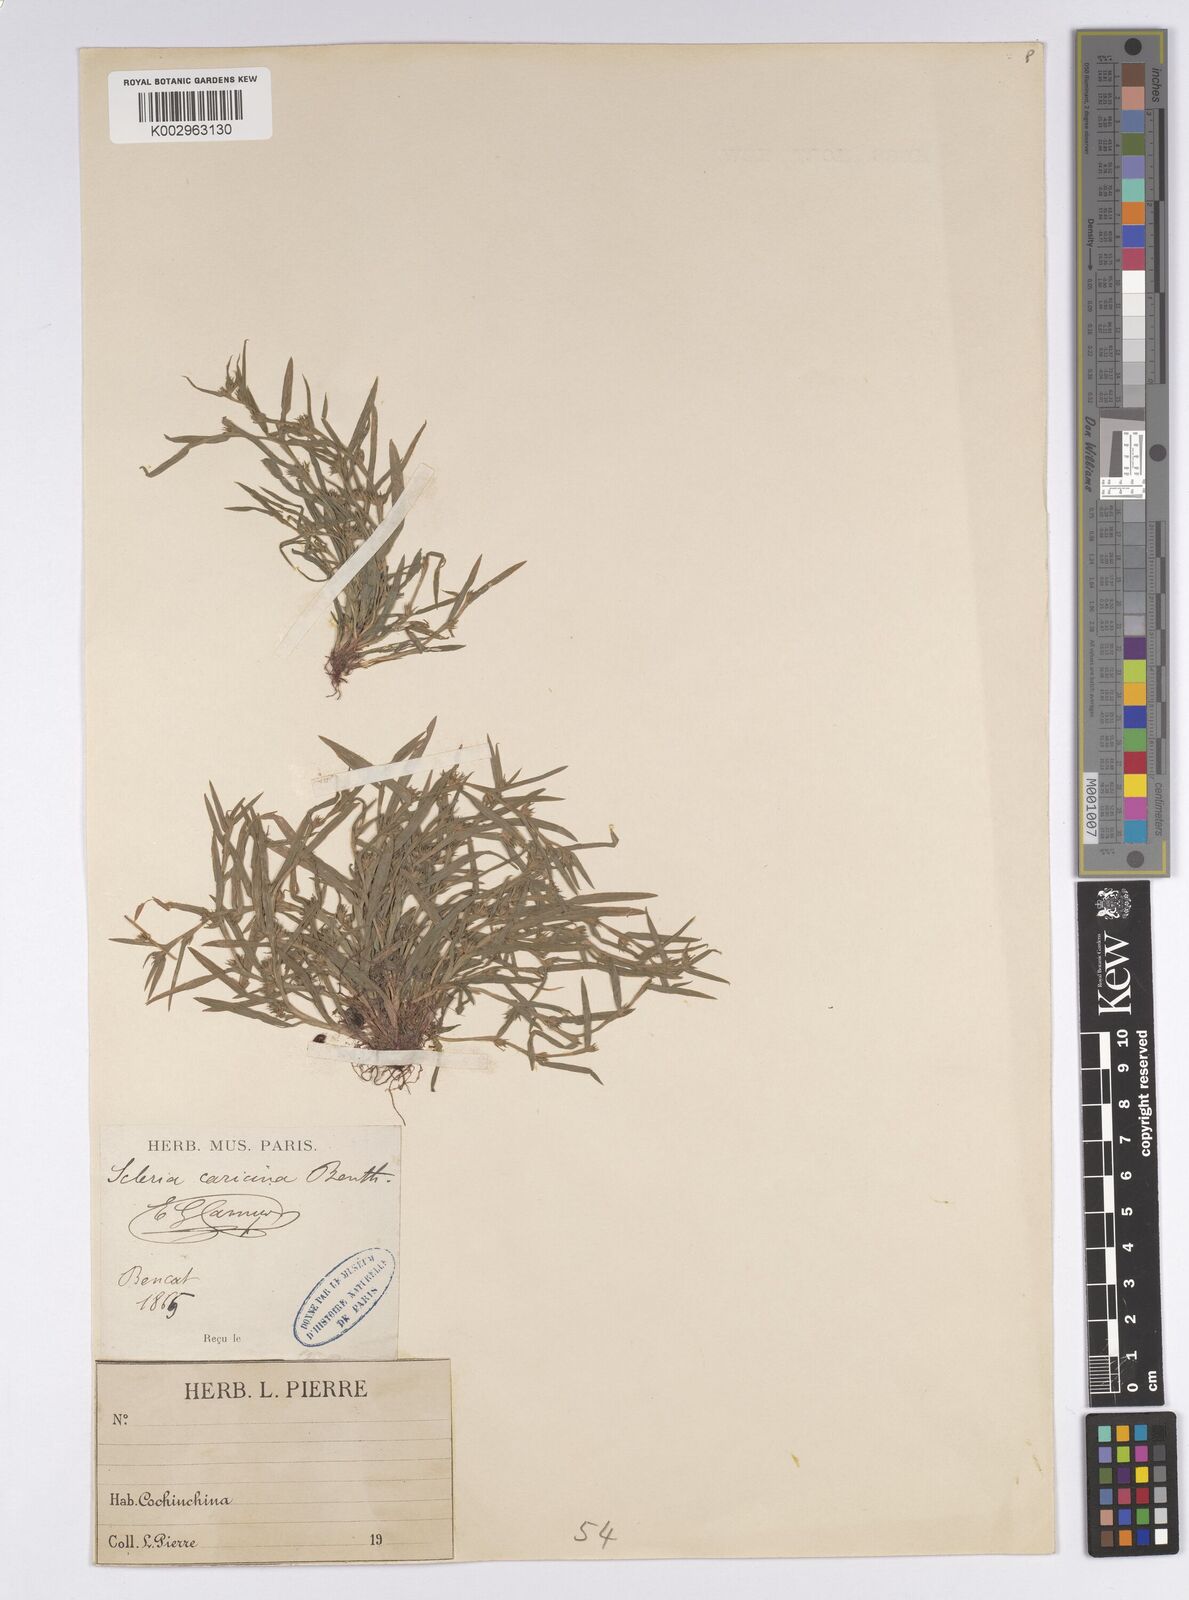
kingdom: Plantae
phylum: Tracheophyta
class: Liliopsida
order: Poales
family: Cyperaceae
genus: Diplacrum
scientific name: Diplacrum caricinum
